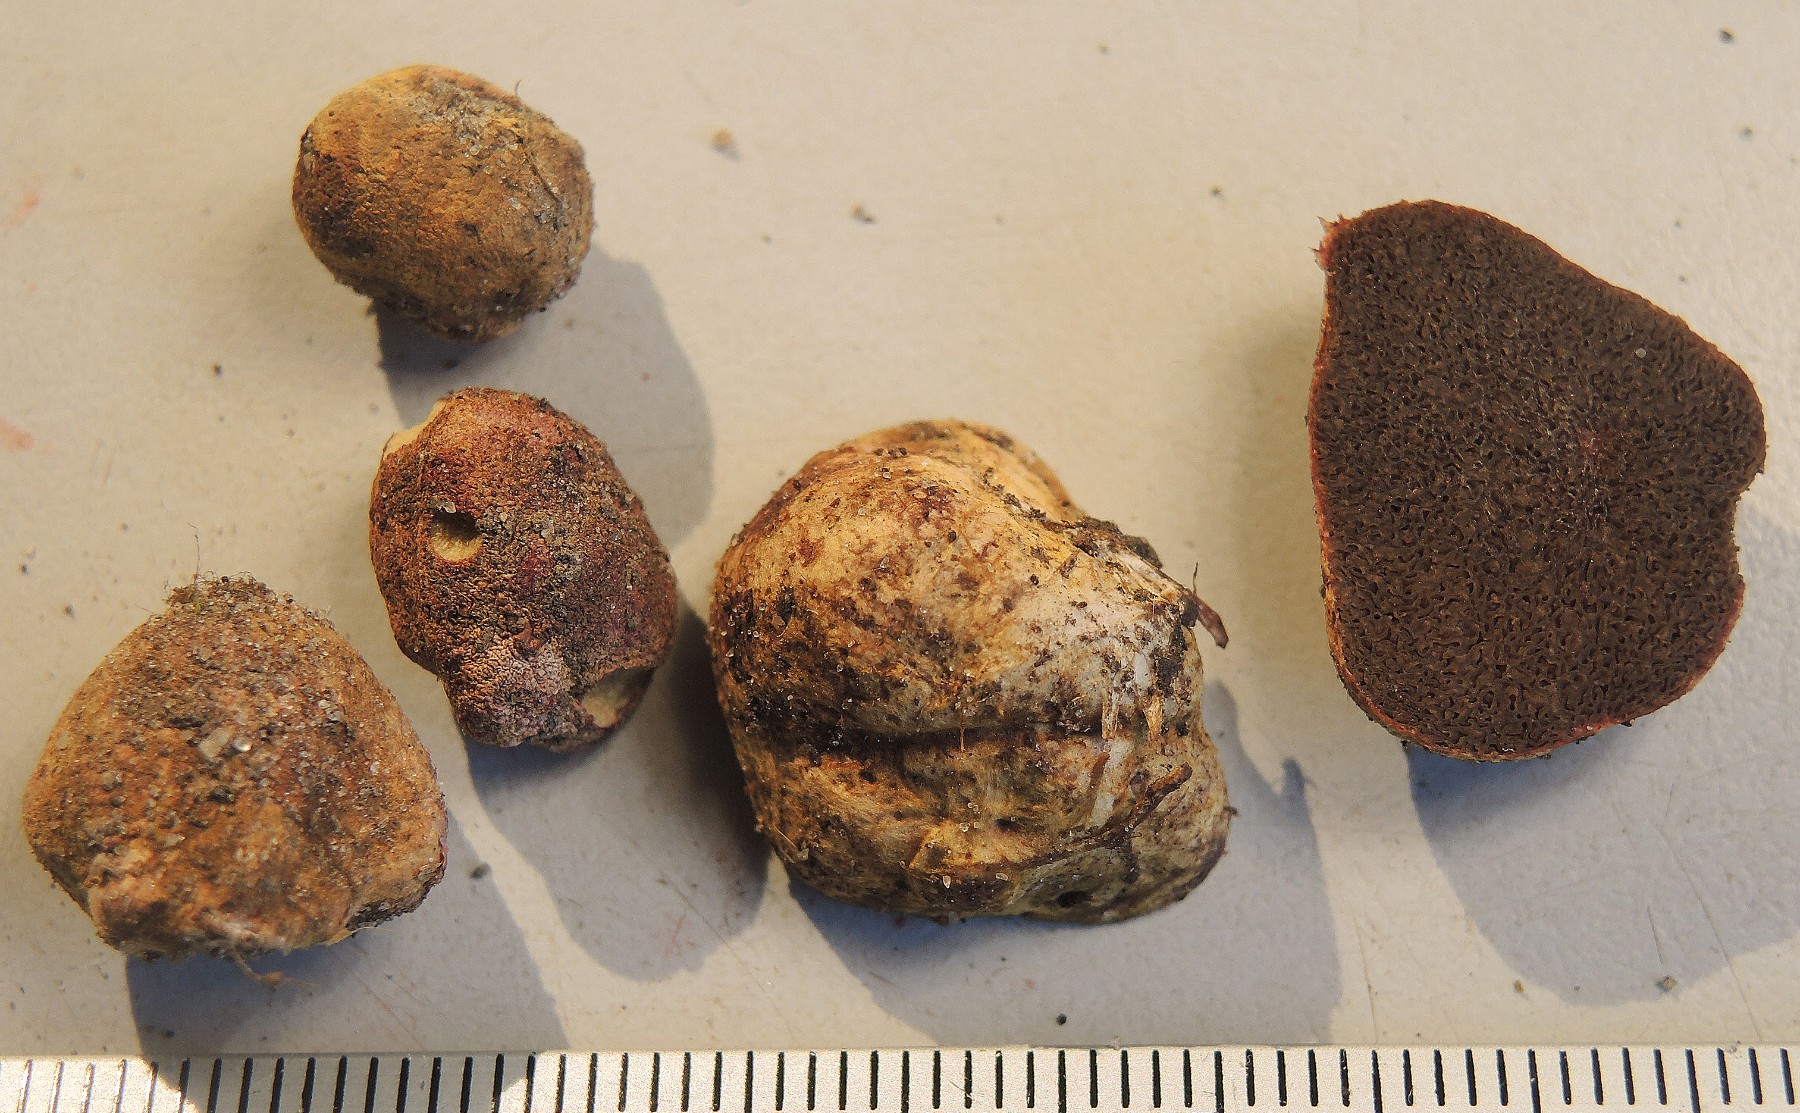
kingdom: Fungi
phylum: Basidiomycota
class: Agaricomycetes
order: Boletales
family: Rhizopogonaceae
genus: Rhizopogon
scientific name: Rhizopogon roseolus
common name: rødlig skægtrøffel
